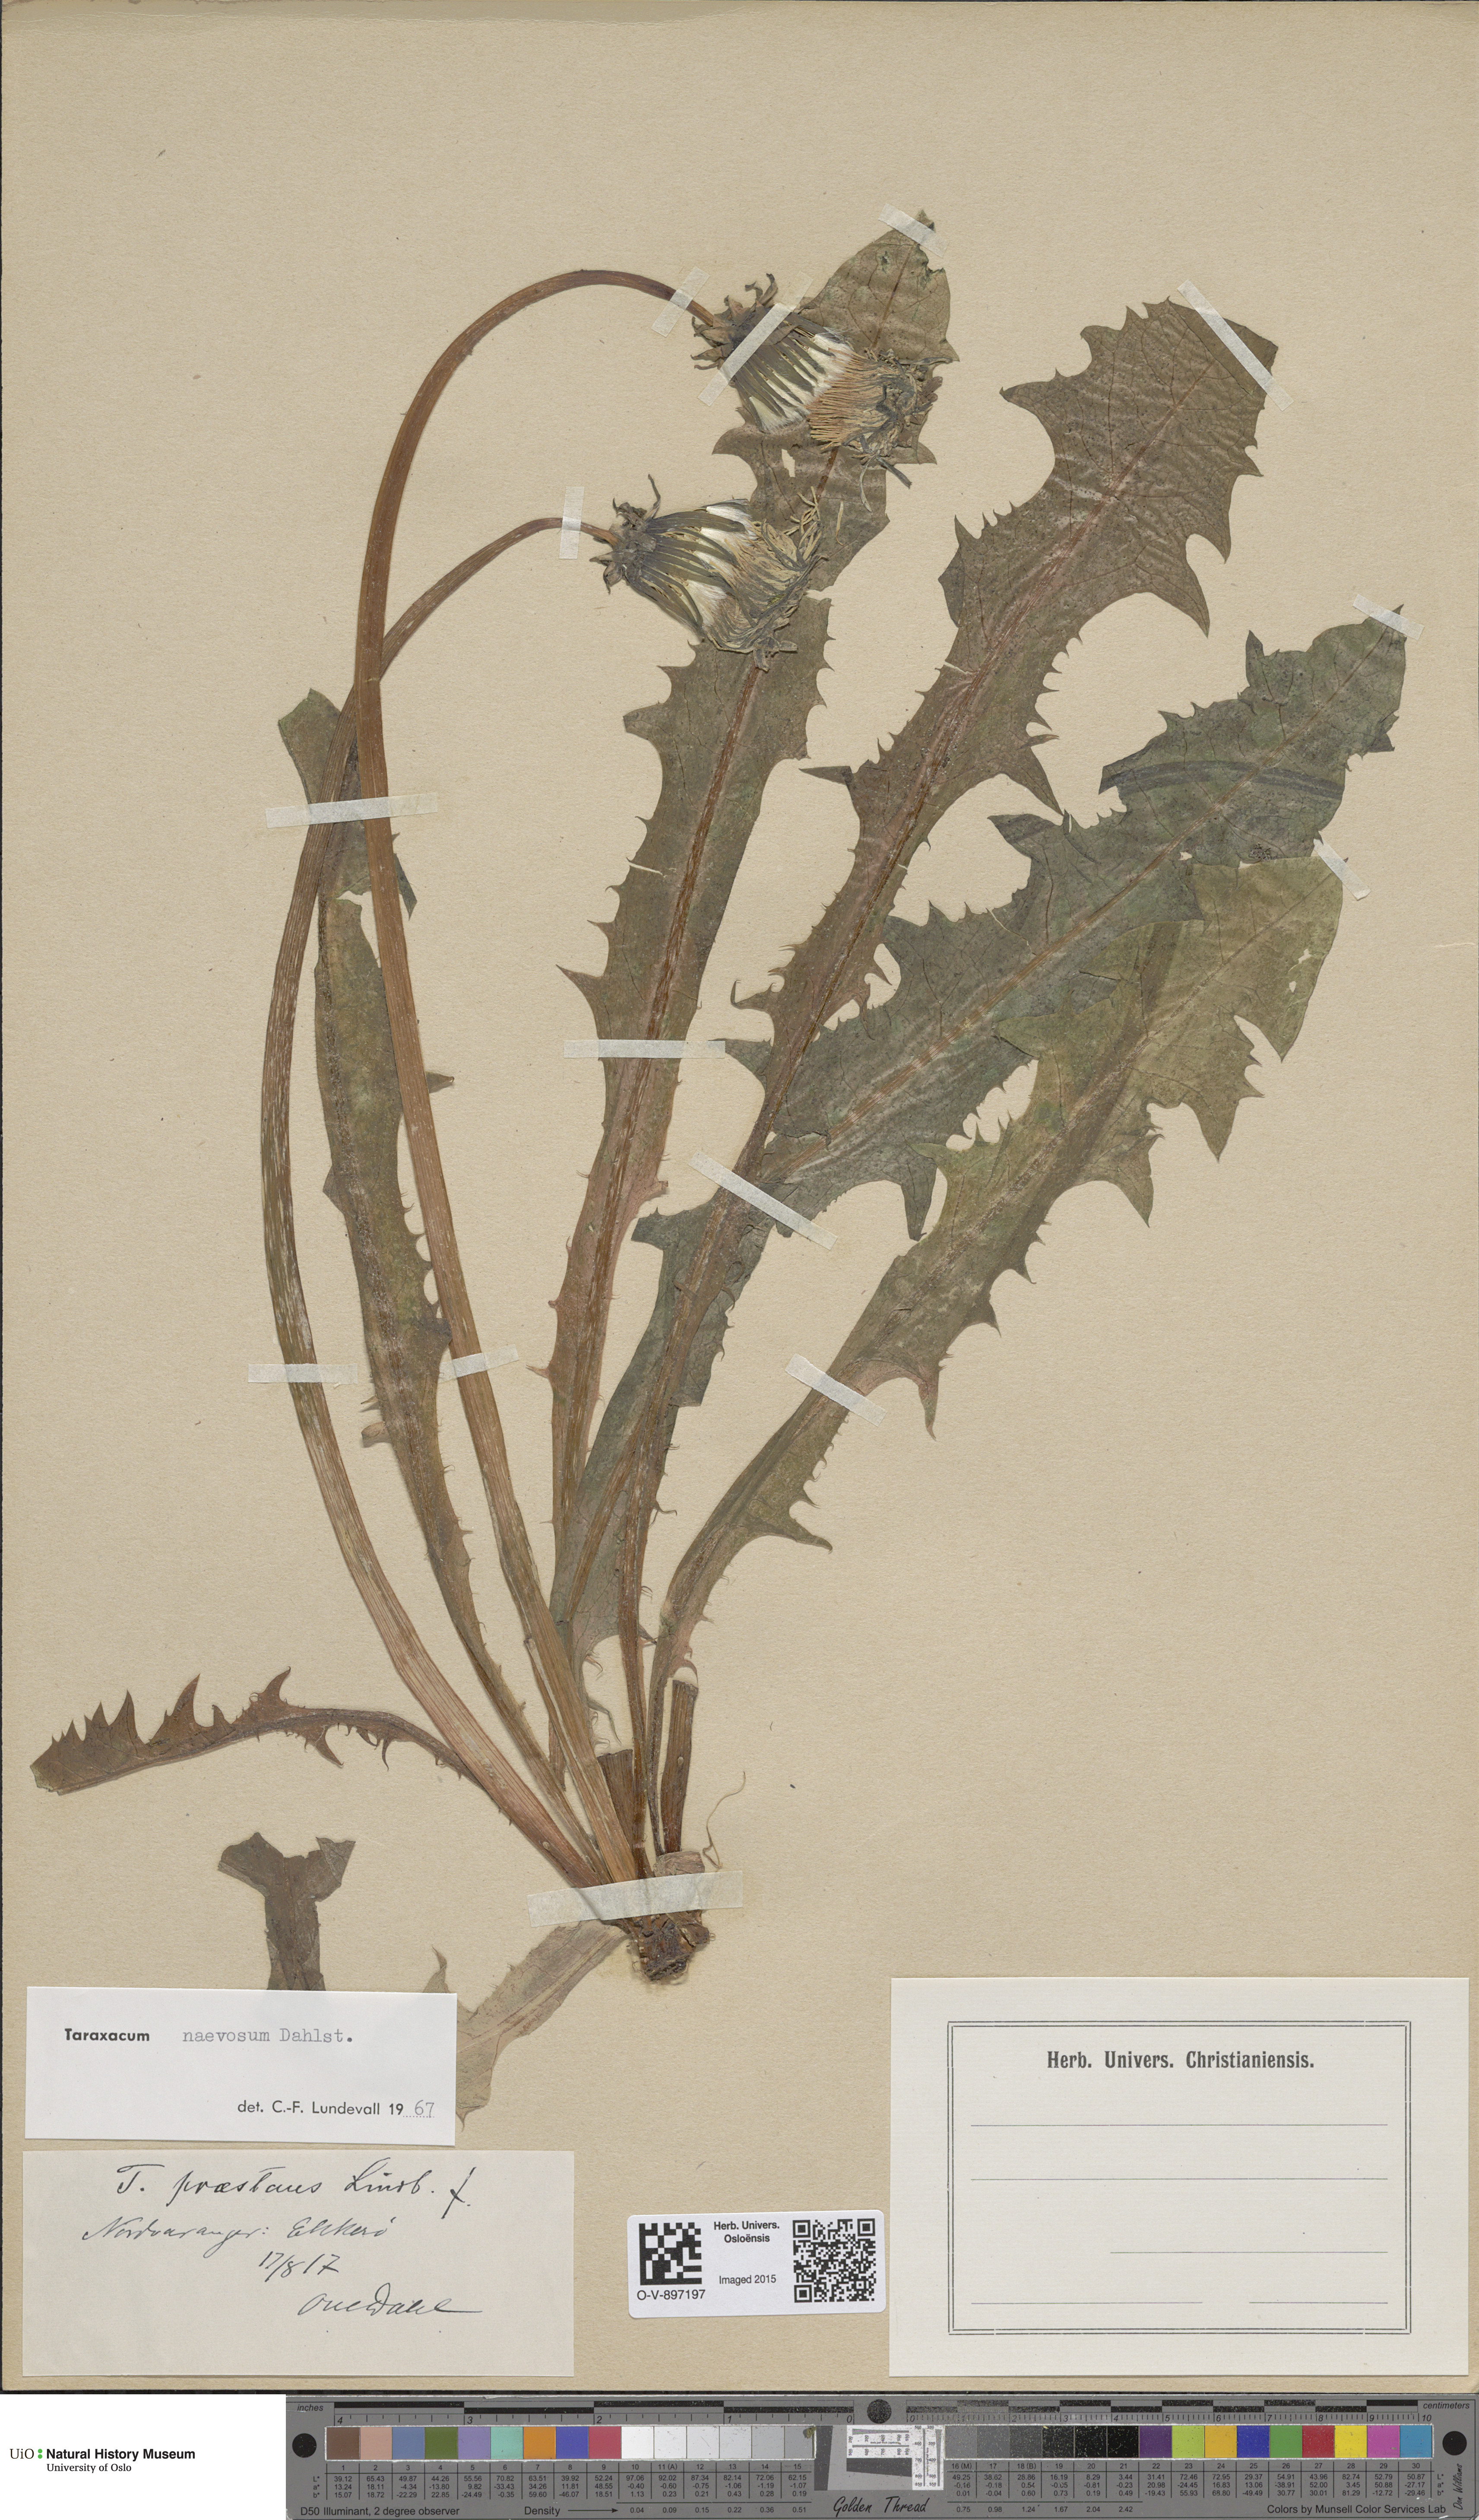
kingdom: Plantae
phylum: Tracheophyta
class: Magnoliopsida
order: Asterales
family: Asteraceae
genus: Taraxacum
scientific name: Taraxacum naevosum
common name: Squat dandelion
